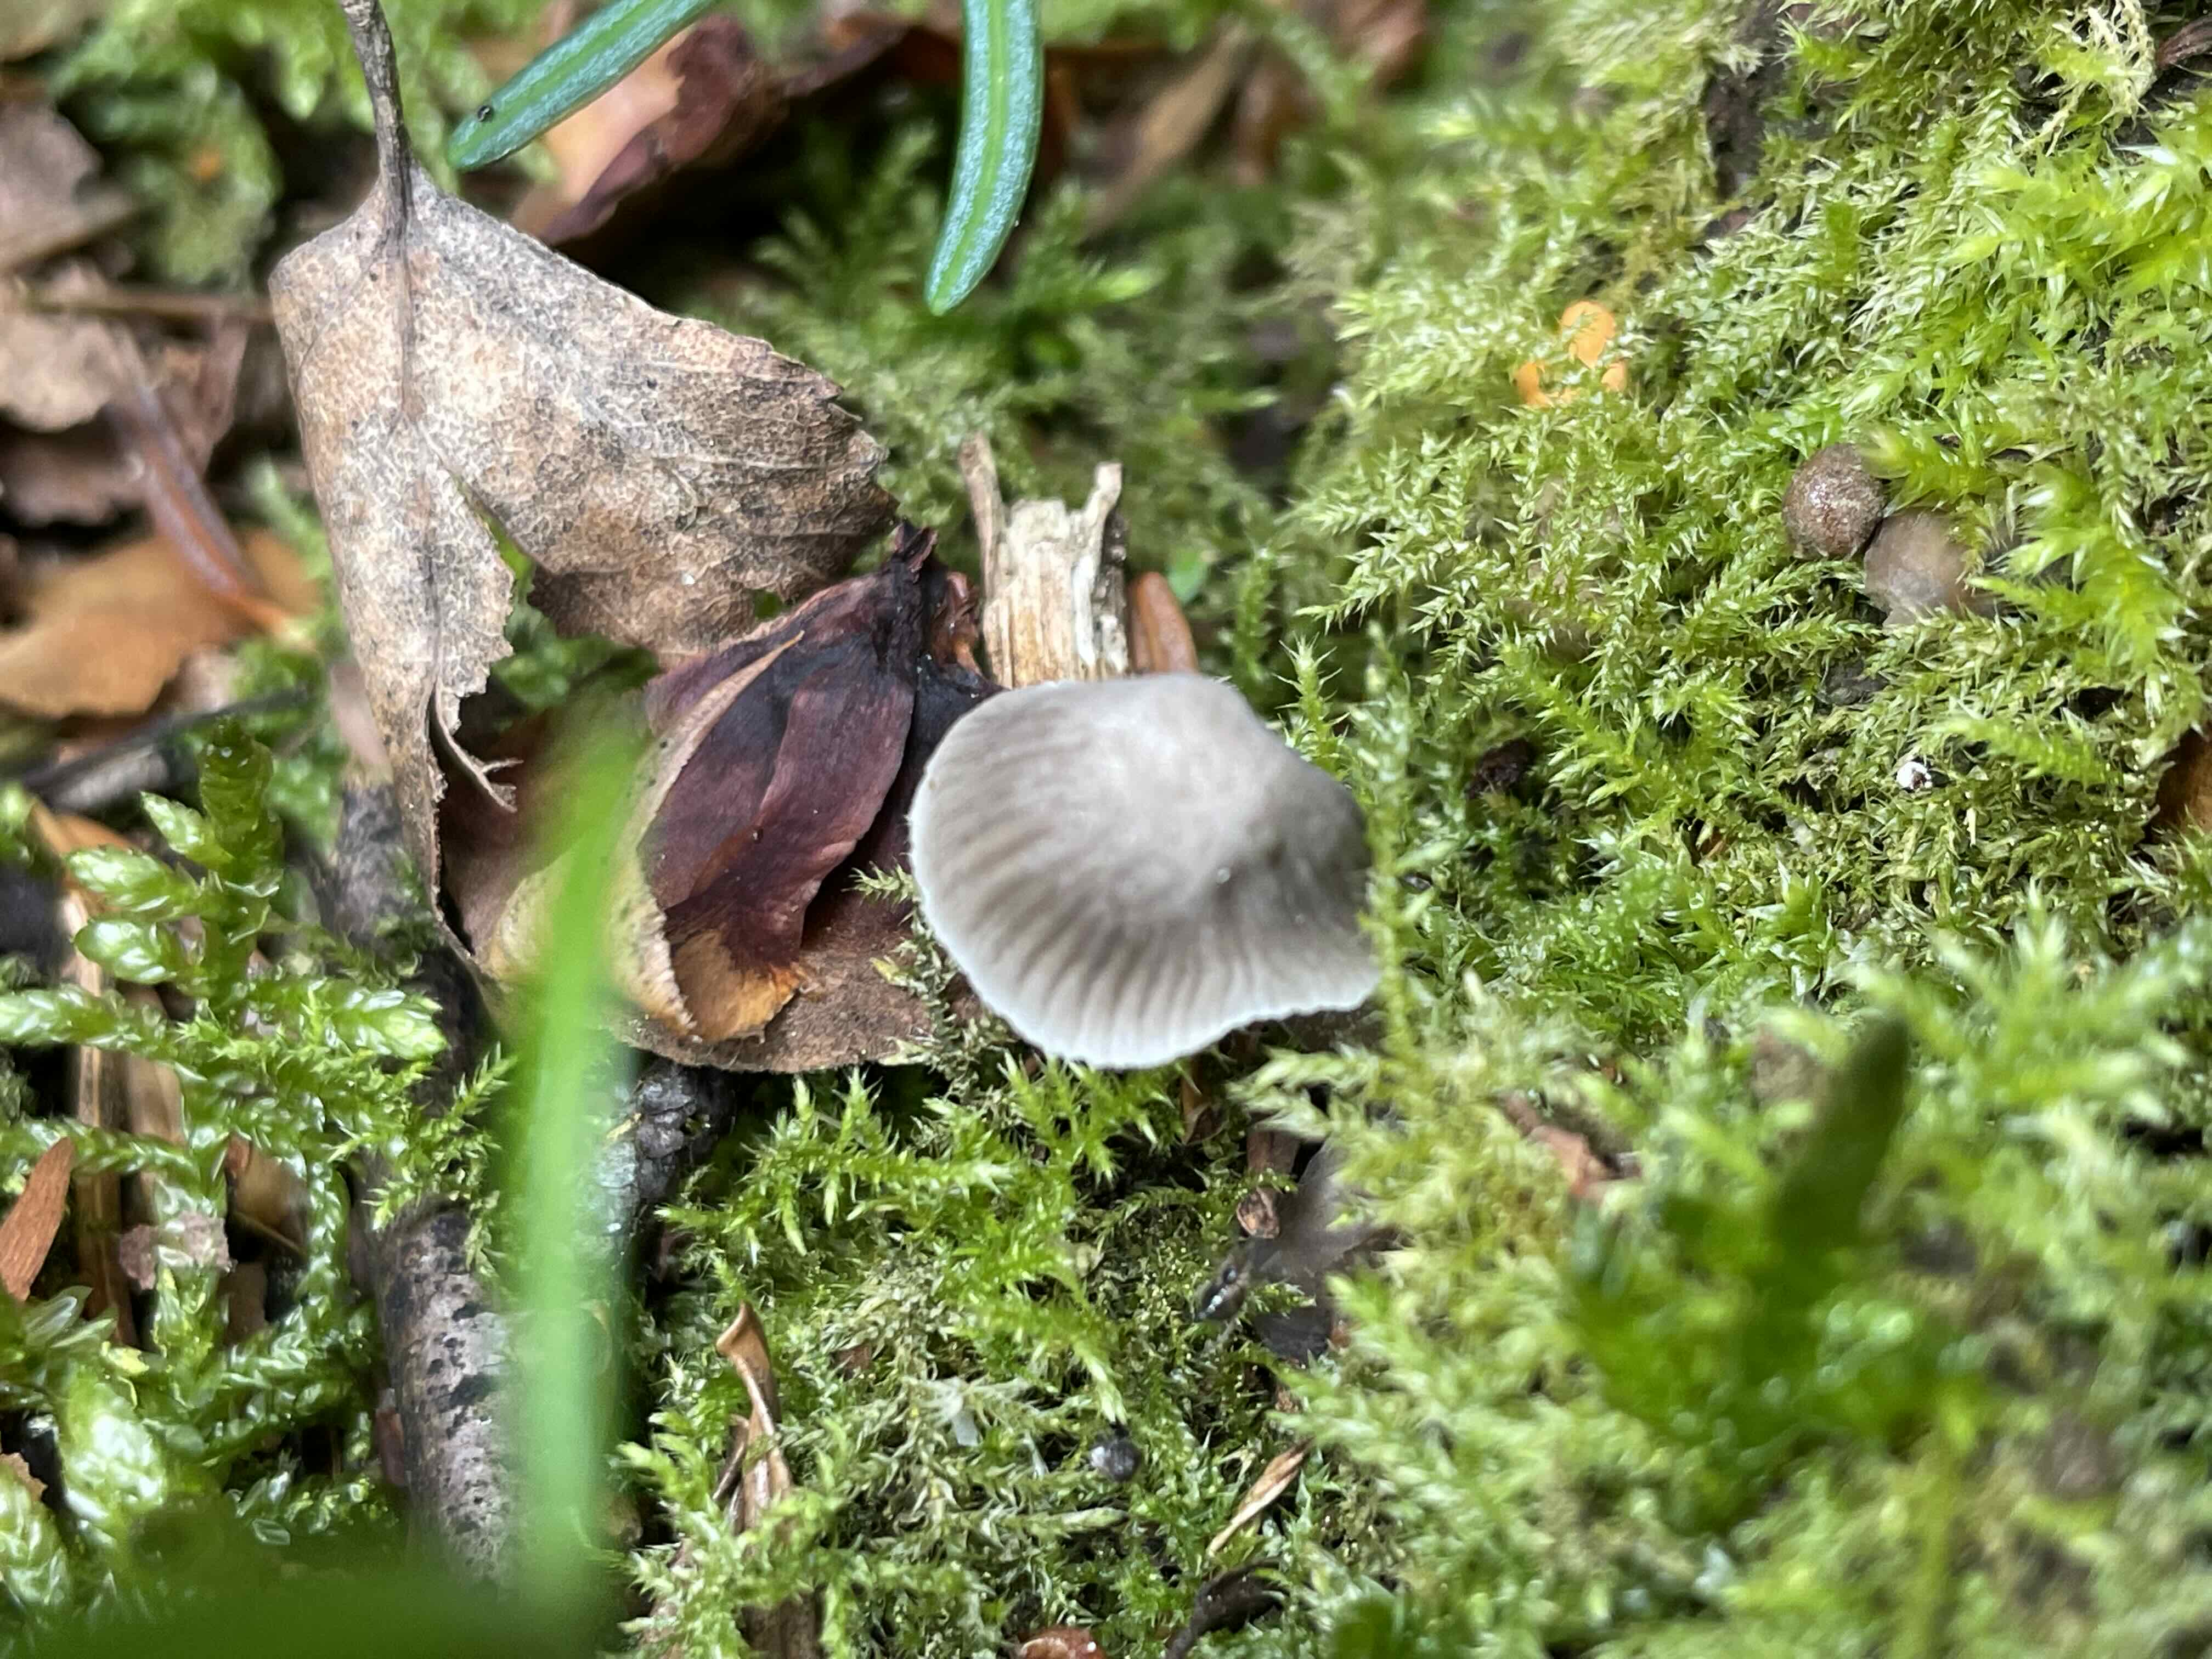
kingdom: Fungi
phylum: Basidiomycota
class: Agaricomycetes
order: Agaricales
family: Mycenaceae
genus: Mycena
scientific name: Mycena
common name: huesvamp
